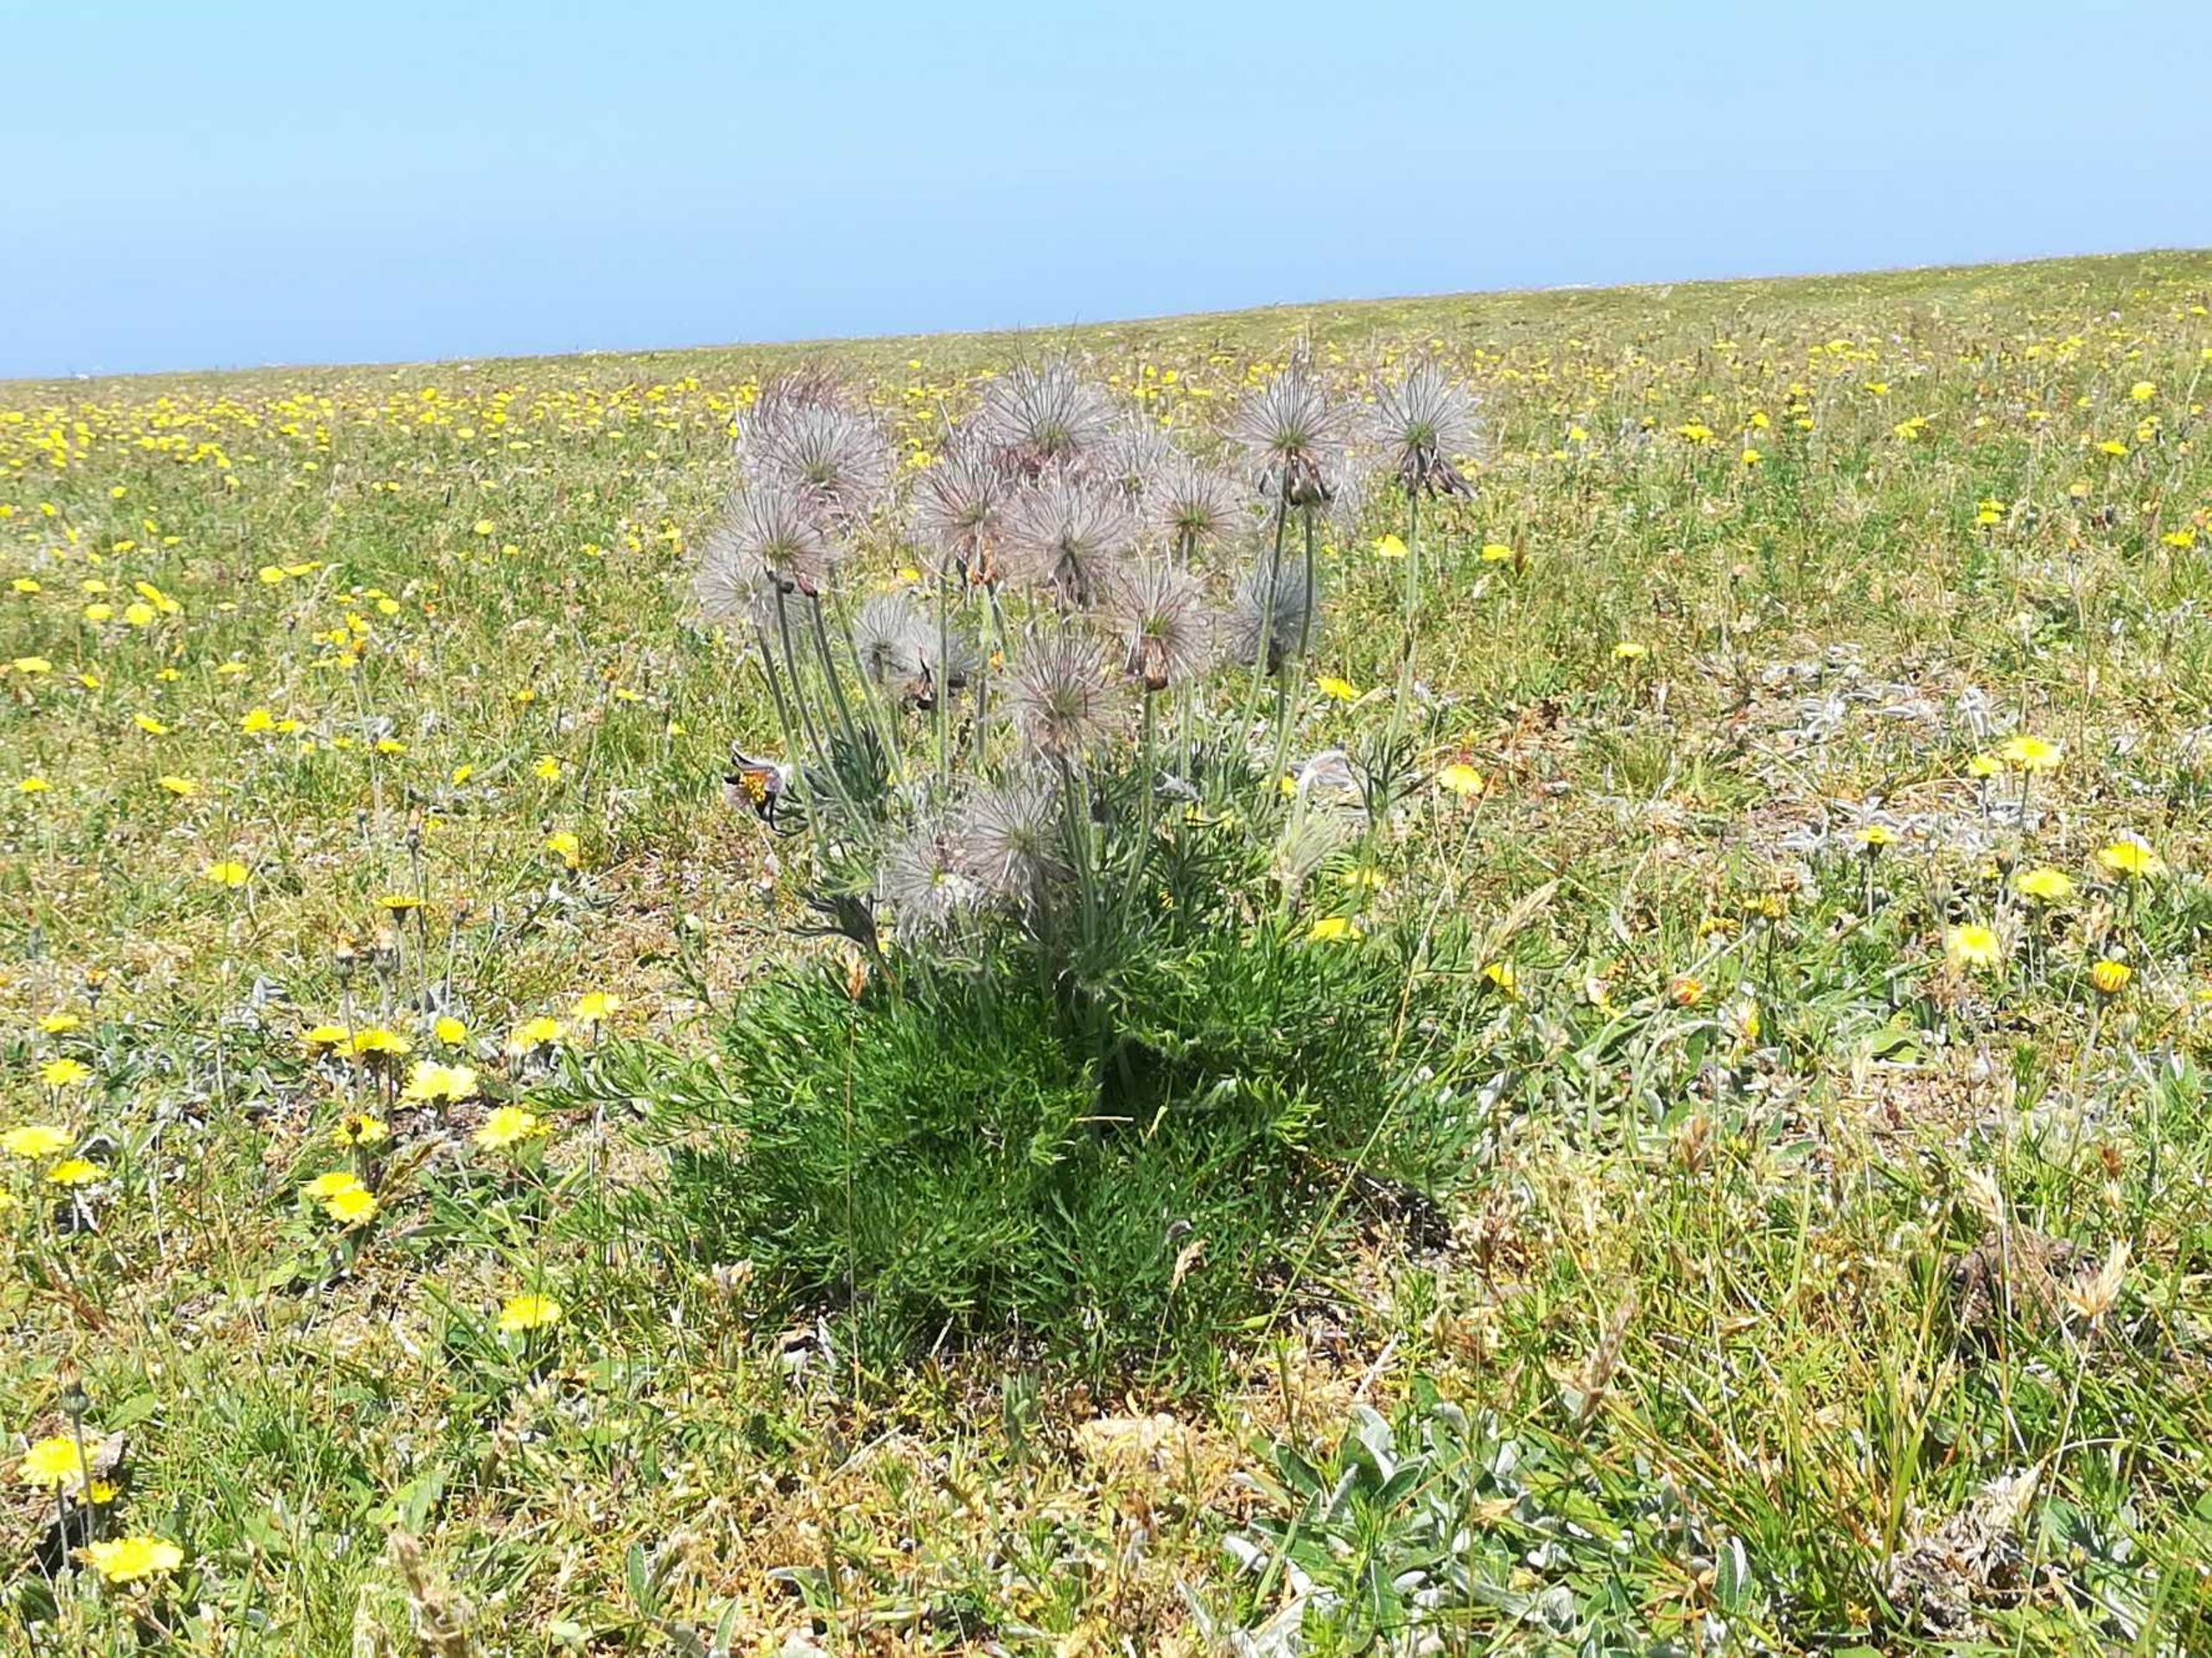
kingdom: Plantae
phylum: Tracheophyta
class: Magnoliopsida
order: Ranunculales
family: Ranunculaceae
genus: Pulsatilla
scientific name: Pulsatilla pratensis
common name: Nikkende kobjælde
